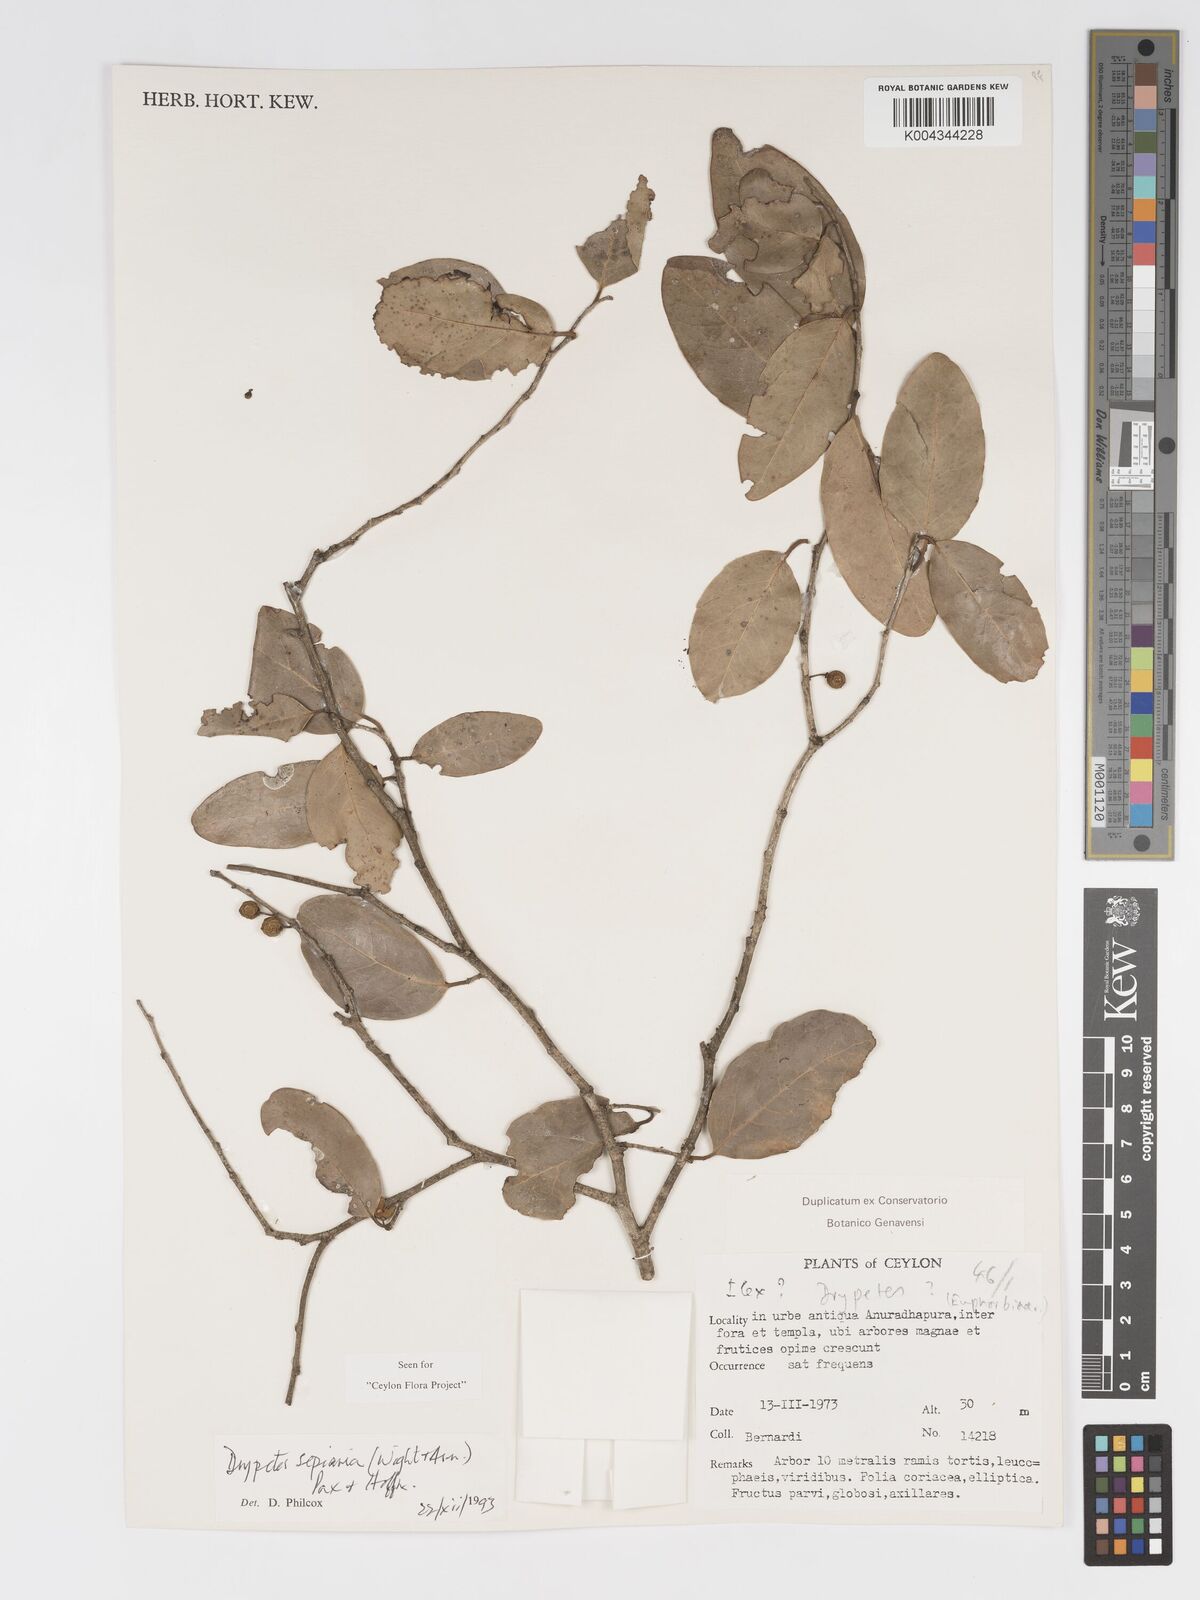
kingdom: Plantae
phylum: Tracheophyta
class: Magnoliopsida
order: Malpighiales
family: Putranjivaceae
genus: Drypetes
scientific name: Drypetes sepiaria
